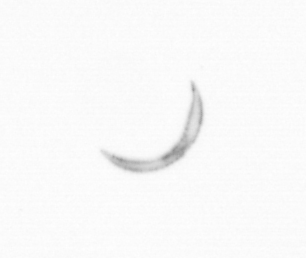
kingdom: Chromista
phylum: Ochrophyta
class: Bacillariophyceae
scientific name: Bacillariophyceae
